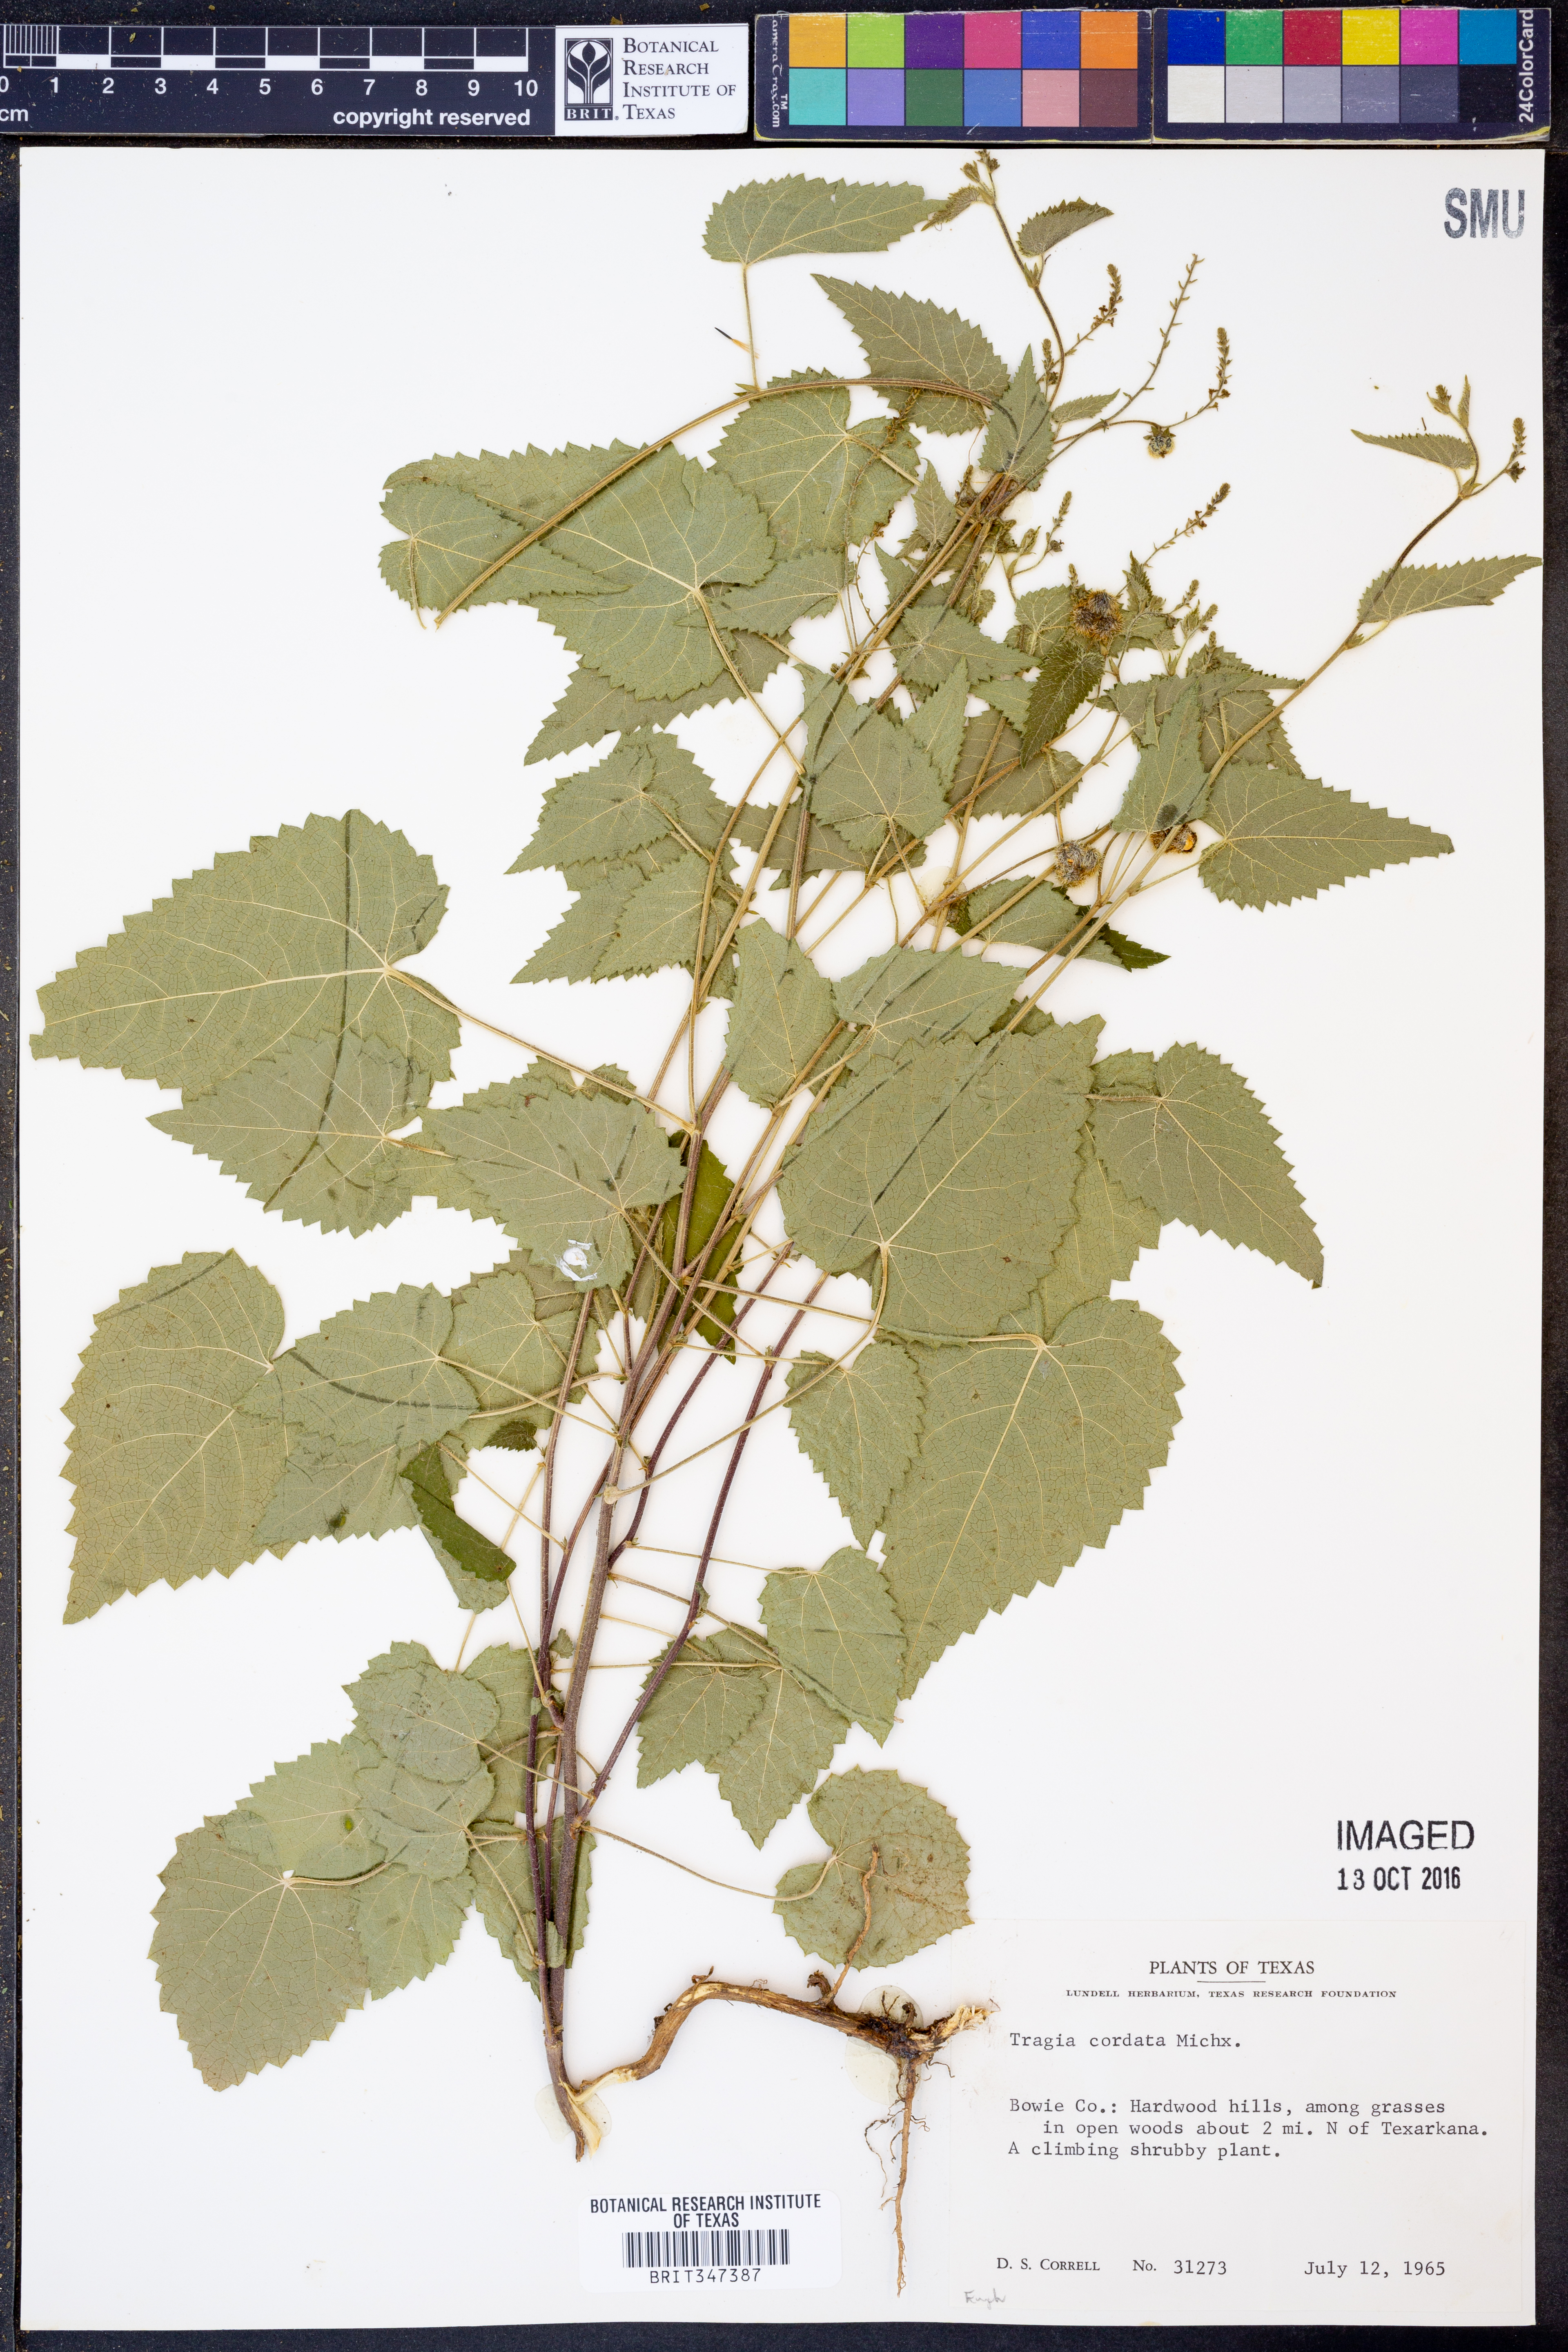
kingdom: Plantae
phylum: Tracheophyta
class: Magnoliopsida
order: Malpighiales
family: Euphorbiaceae
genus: Tragia
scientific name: Tragia cordata
